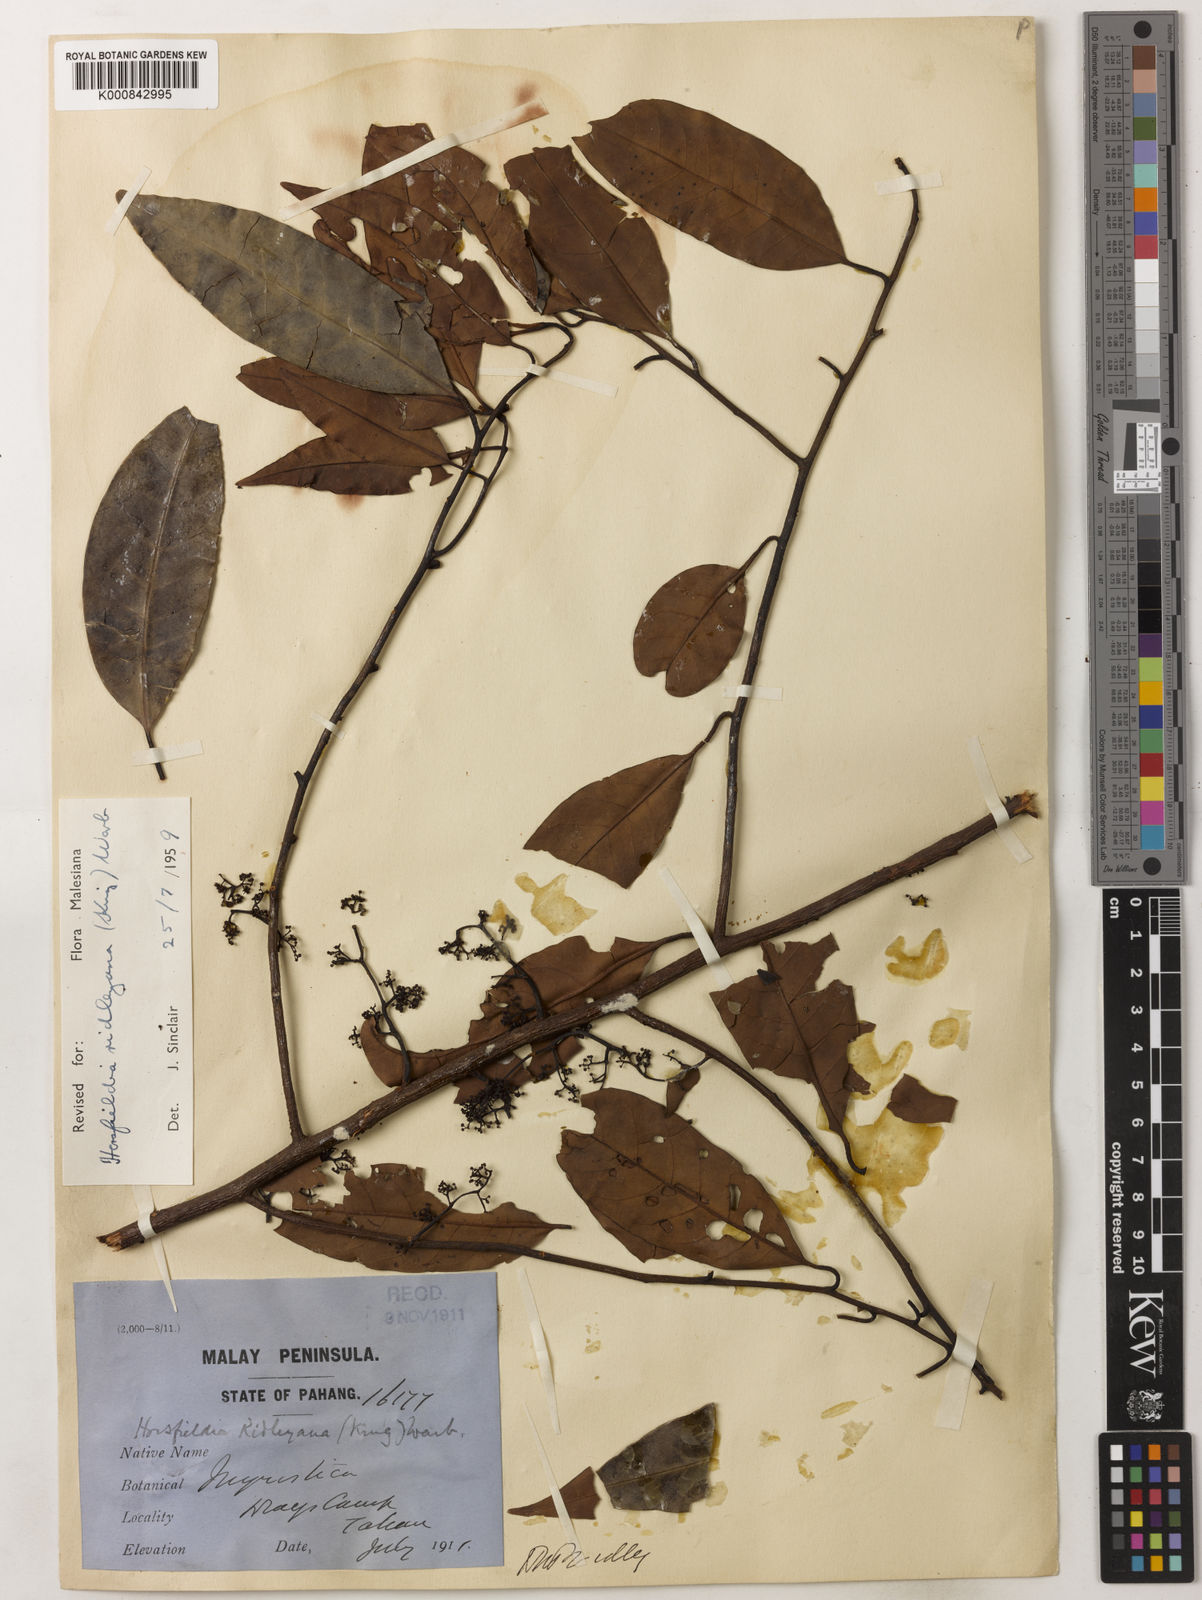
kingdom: Plantae
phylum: Tracheophyta
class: Magnoliopsida
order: Magnoliales
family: Myristicaceae
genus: Horsfieldia
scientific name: Horsfieldia ridleyana
